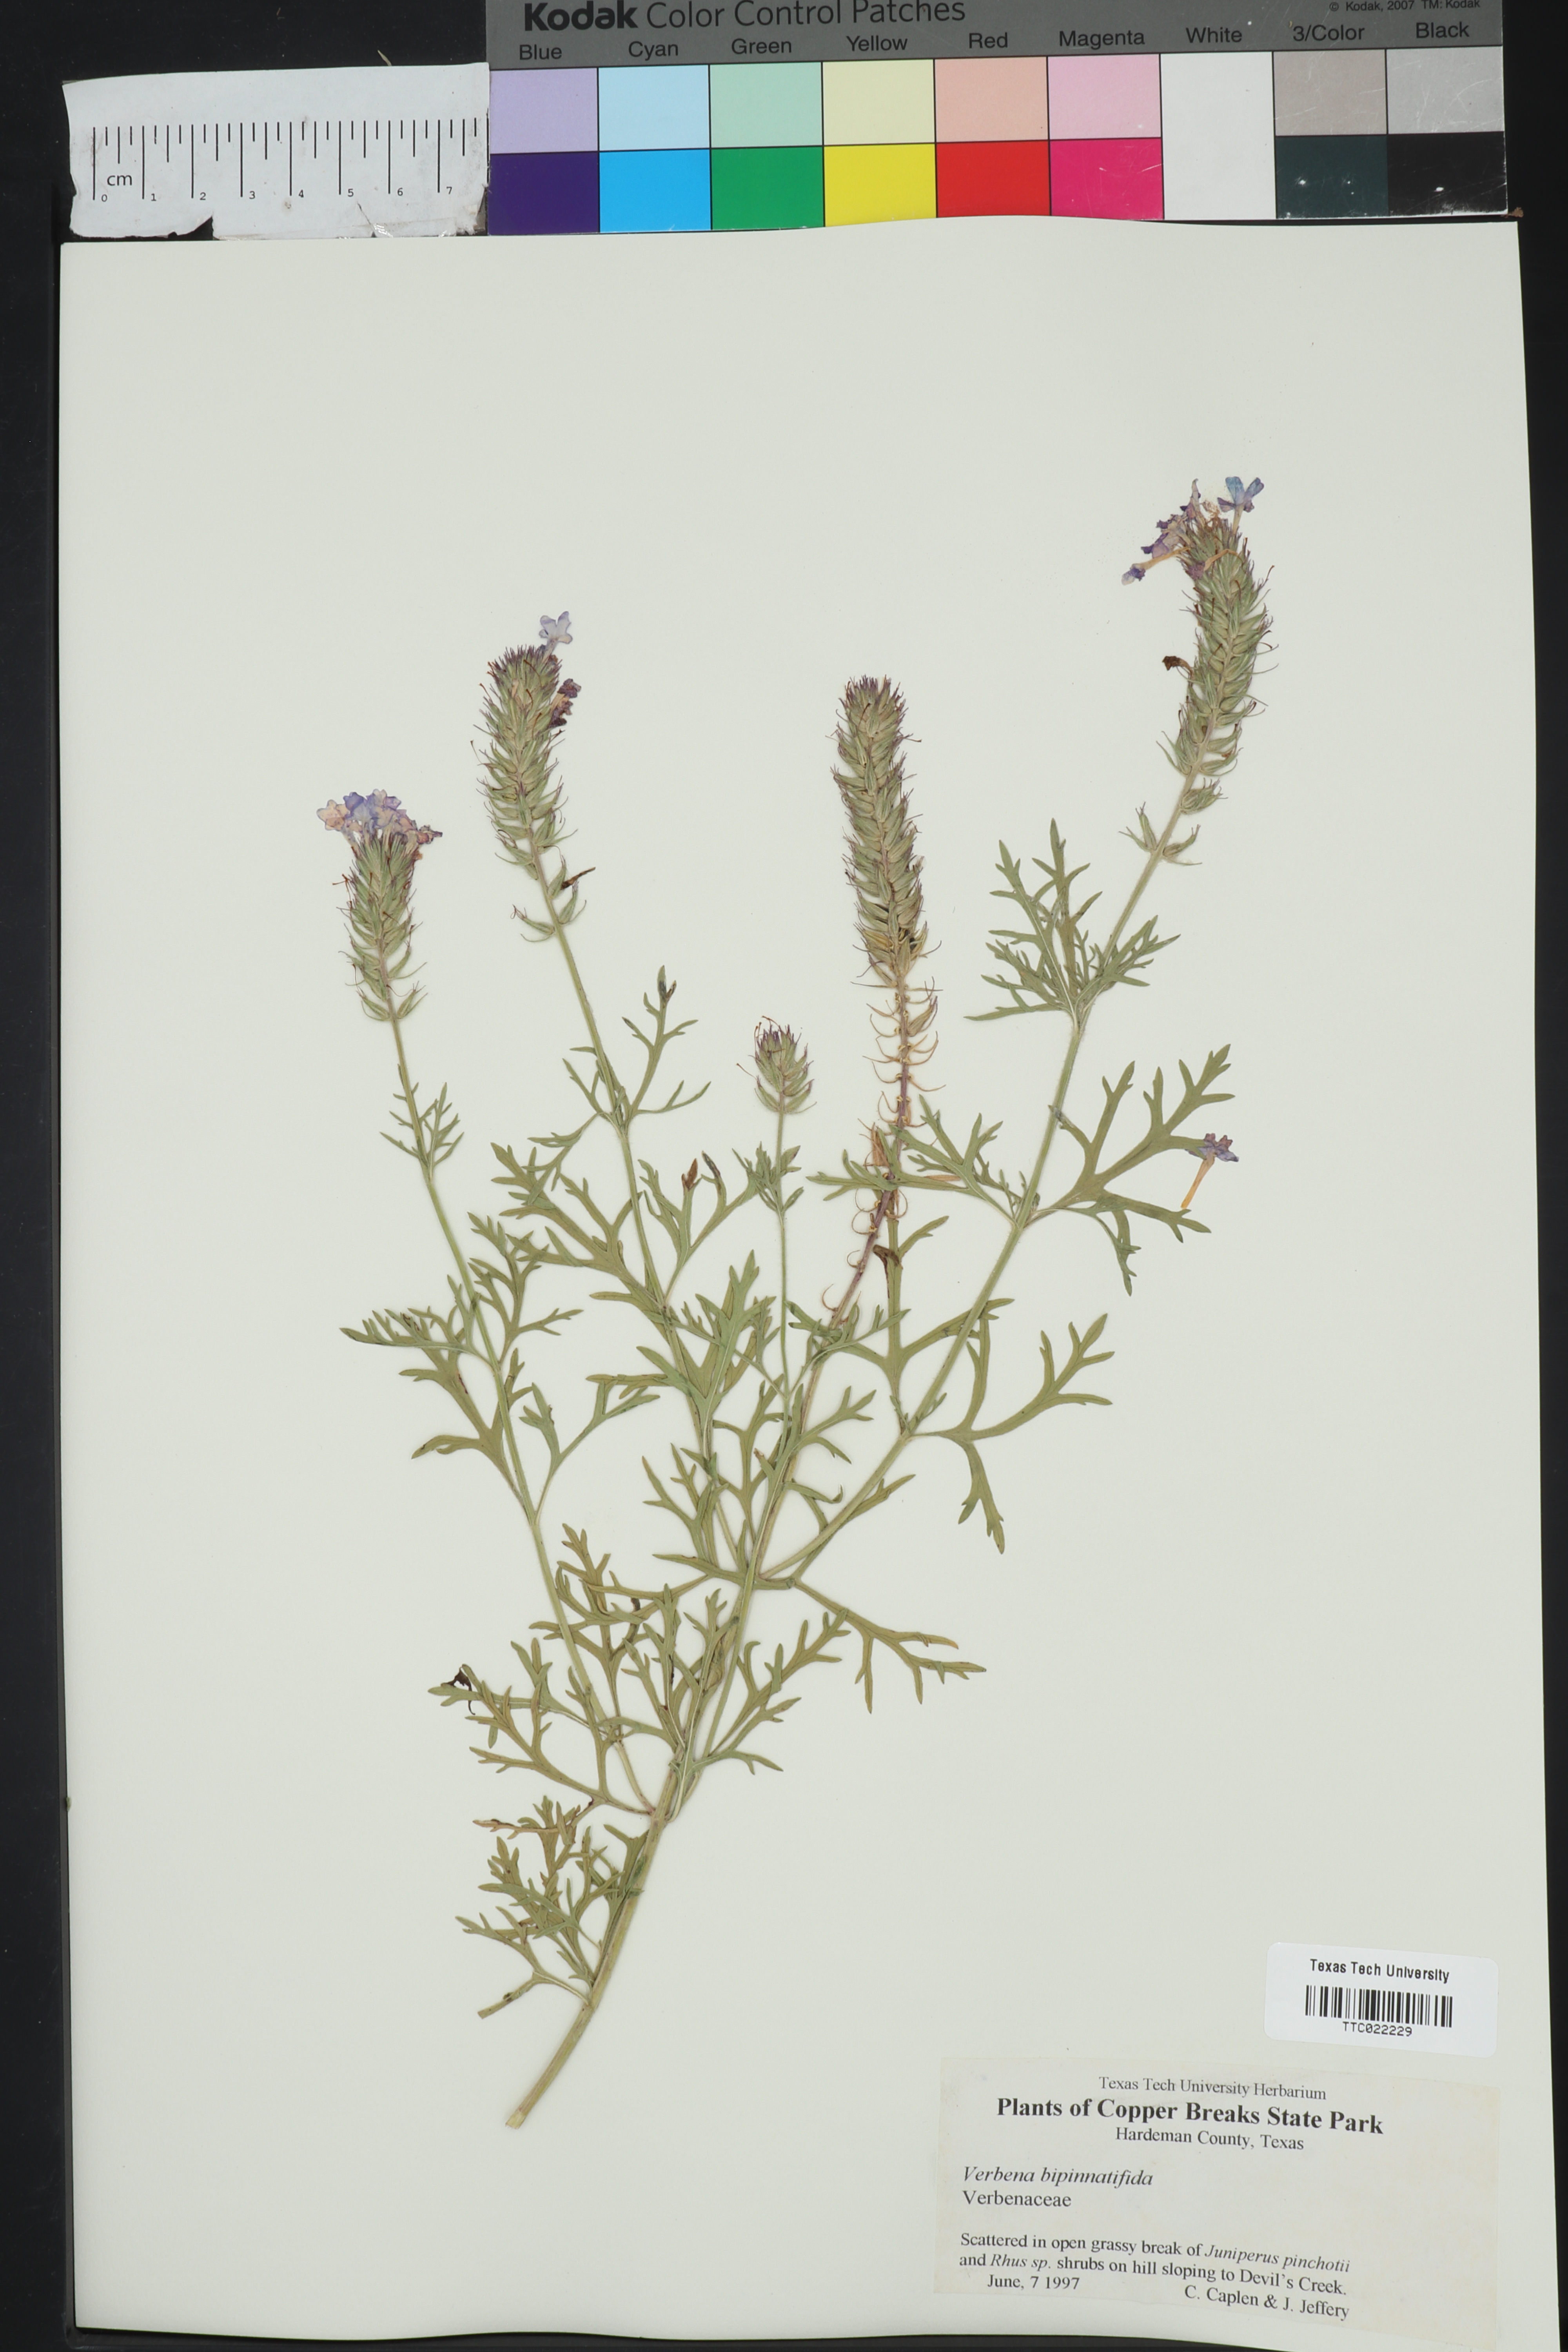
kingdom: Plantae
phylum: Tracheophyta
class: Magnoliopsida
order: Lamiales
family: Verbenaceae
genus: Verbena
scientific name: Verbena bipinnatifida
